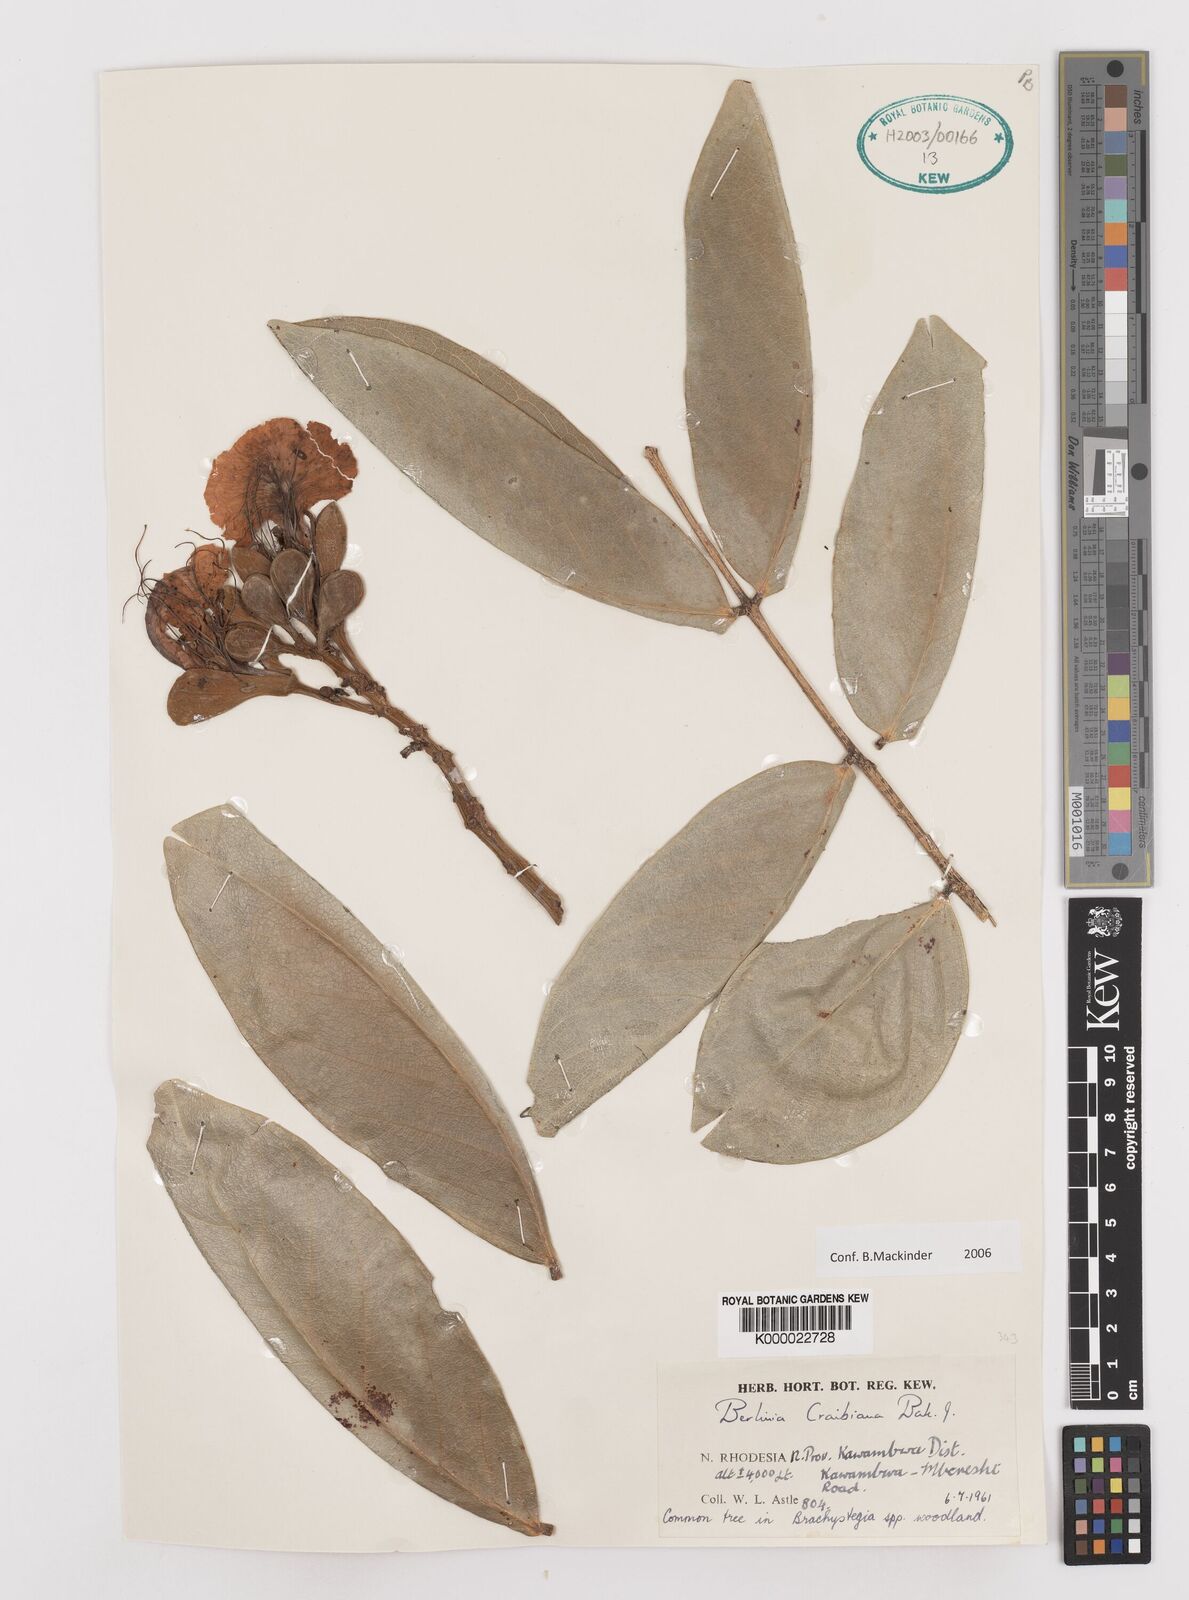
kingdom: Plantae
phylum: Tracheophyta
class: Magnoliopsida
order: Fabales
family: Fabaceae
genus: Berlinia
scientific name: Berlinia giorgii
